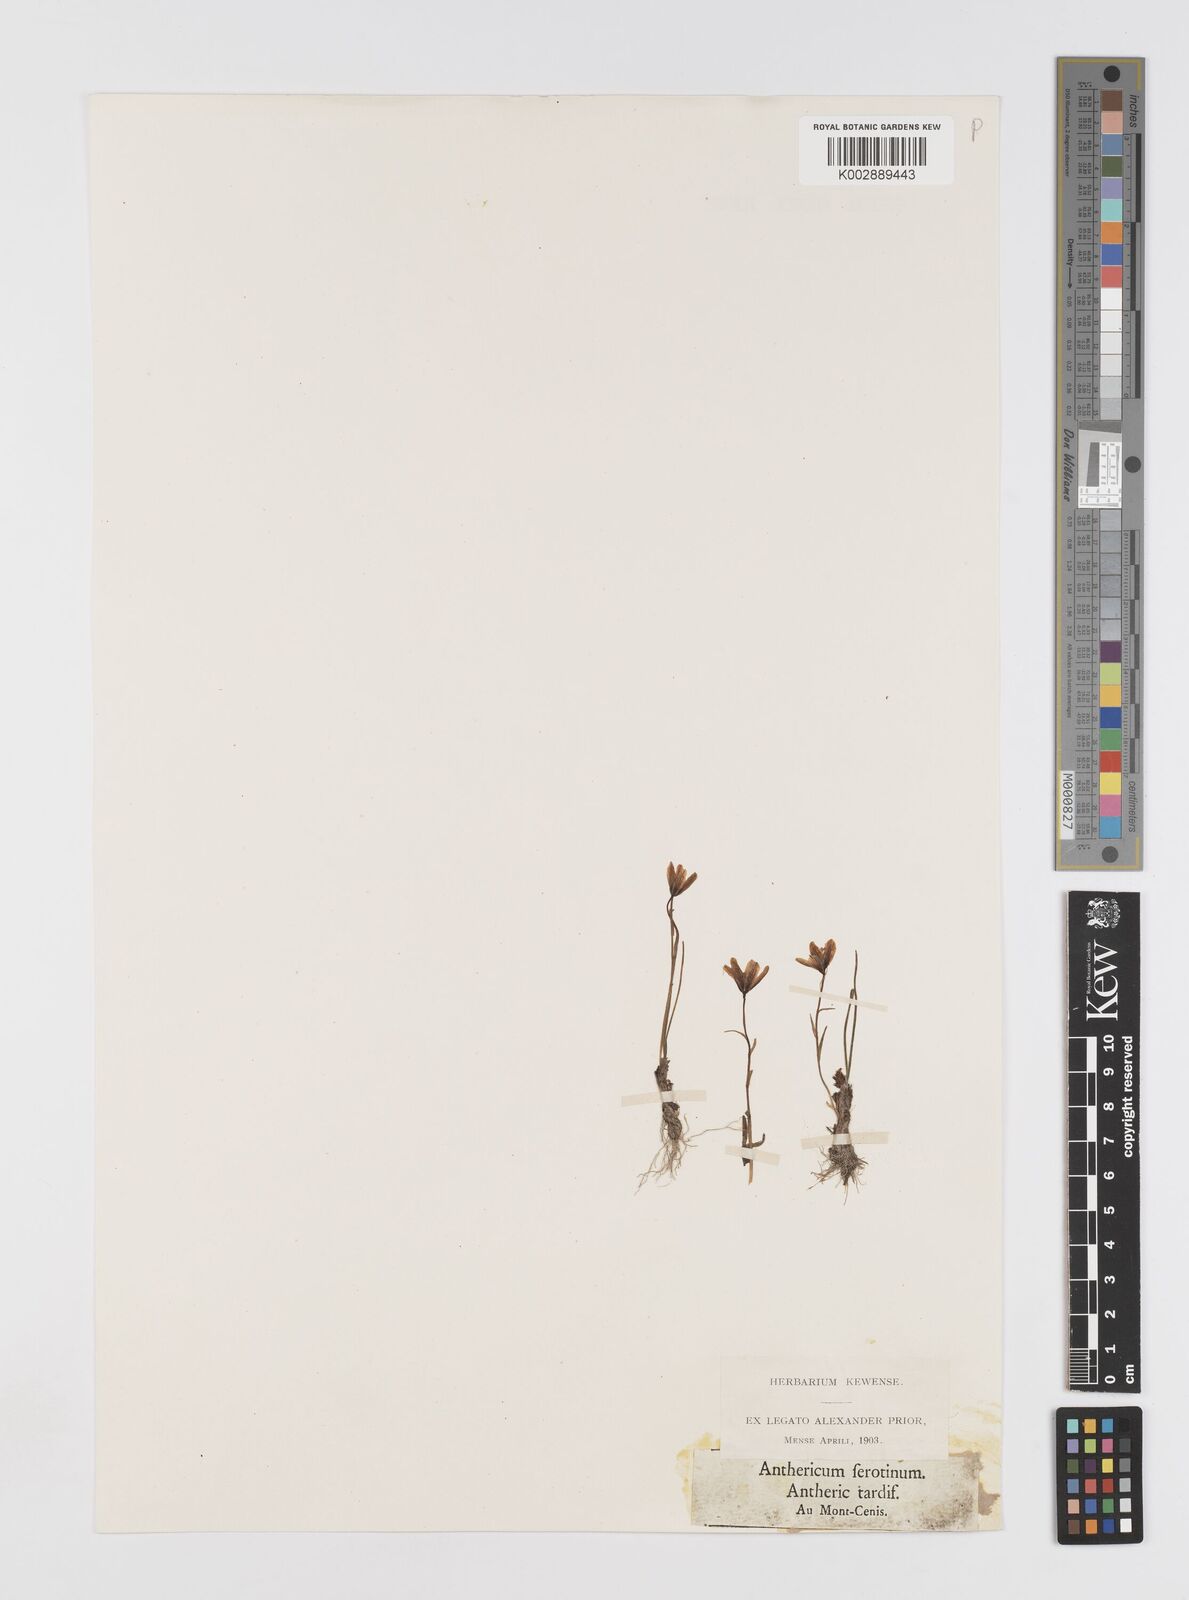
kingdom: Plantae
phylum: Tracheophyta
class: Liliopsida
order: Liliales
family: Liliaceae
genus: Gagea
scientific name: Gagea
